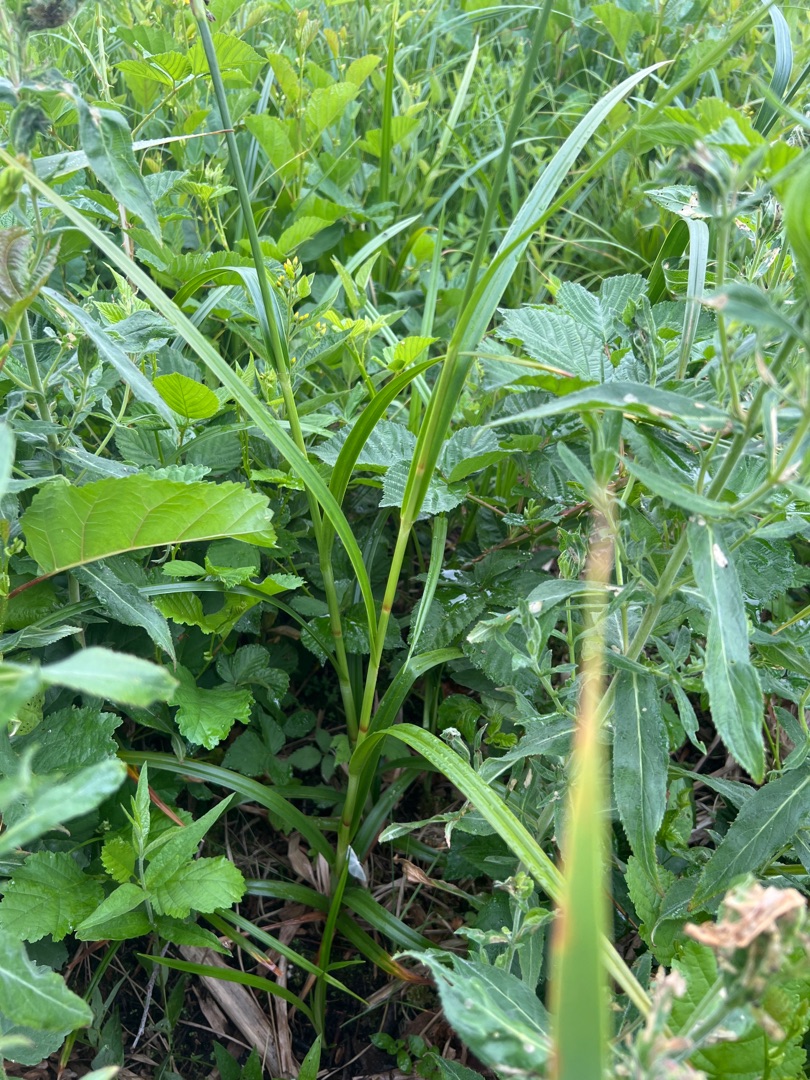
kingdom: Plantae
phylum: Tracheophyta
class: Liliopsida
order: Poales
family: Cyperaceae
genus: Scirpus
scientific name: Scirpus sylvaticus
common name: Skov-kogleaks
